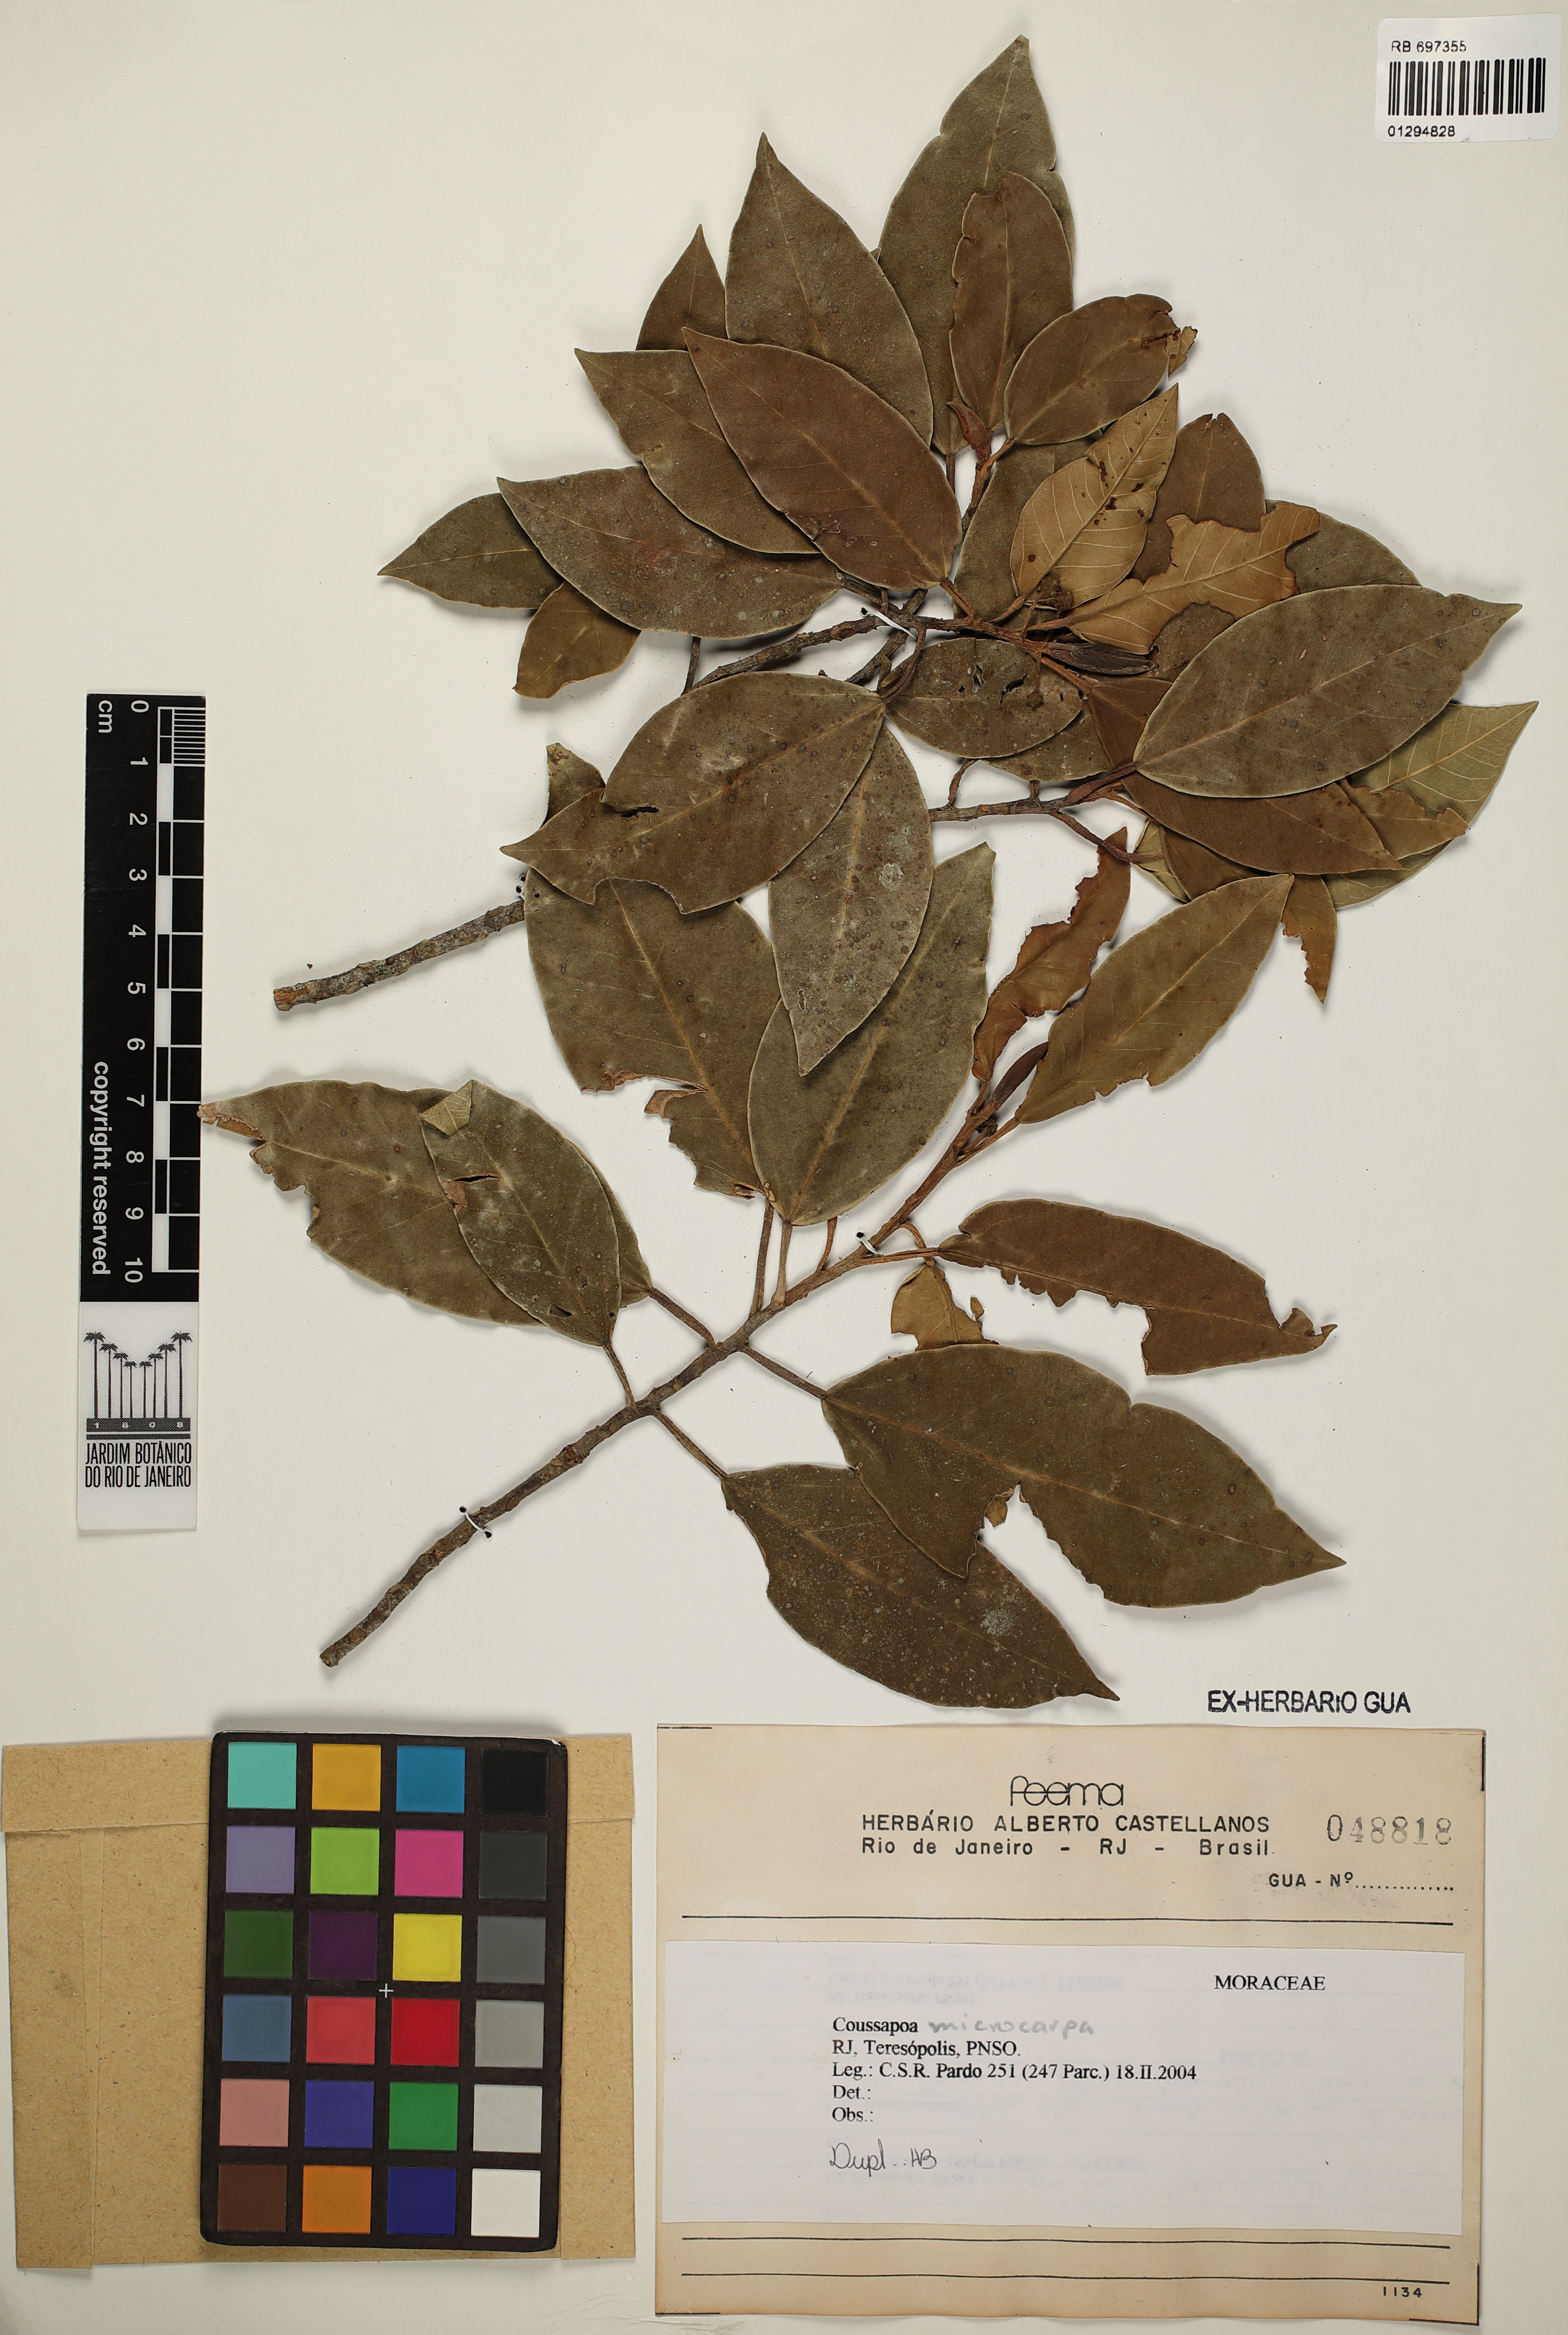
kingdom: Plantae
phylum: Tracheophyta
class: Magnoliopsida
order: Rosales
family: Urticaceae
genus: Coussapoa
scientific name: Coussapoa microcarpa
